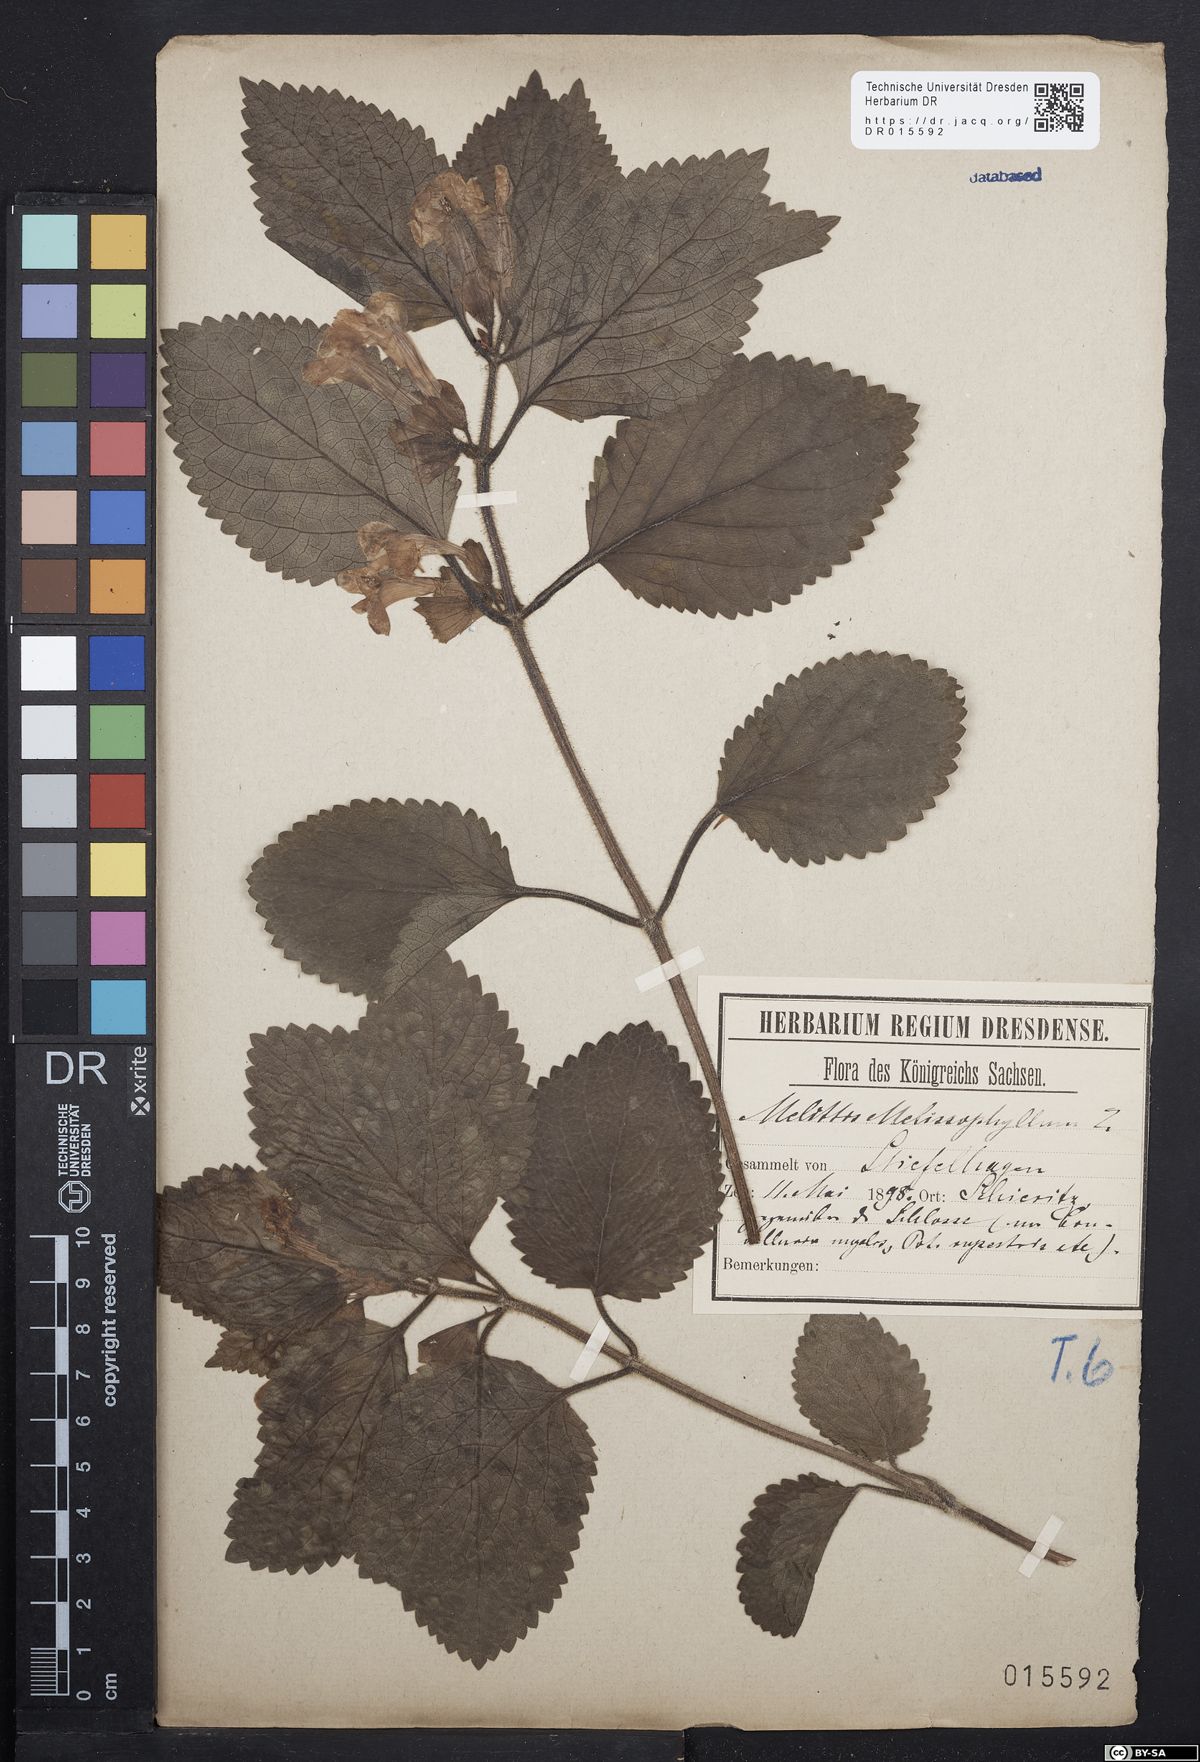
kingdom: Plantae
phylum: Tracheophyta
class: Magnoliopsida
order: Lamiales
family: Lamiaceae
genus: Melittis
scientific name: Melittis melissophyllum
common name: Bastard balm
